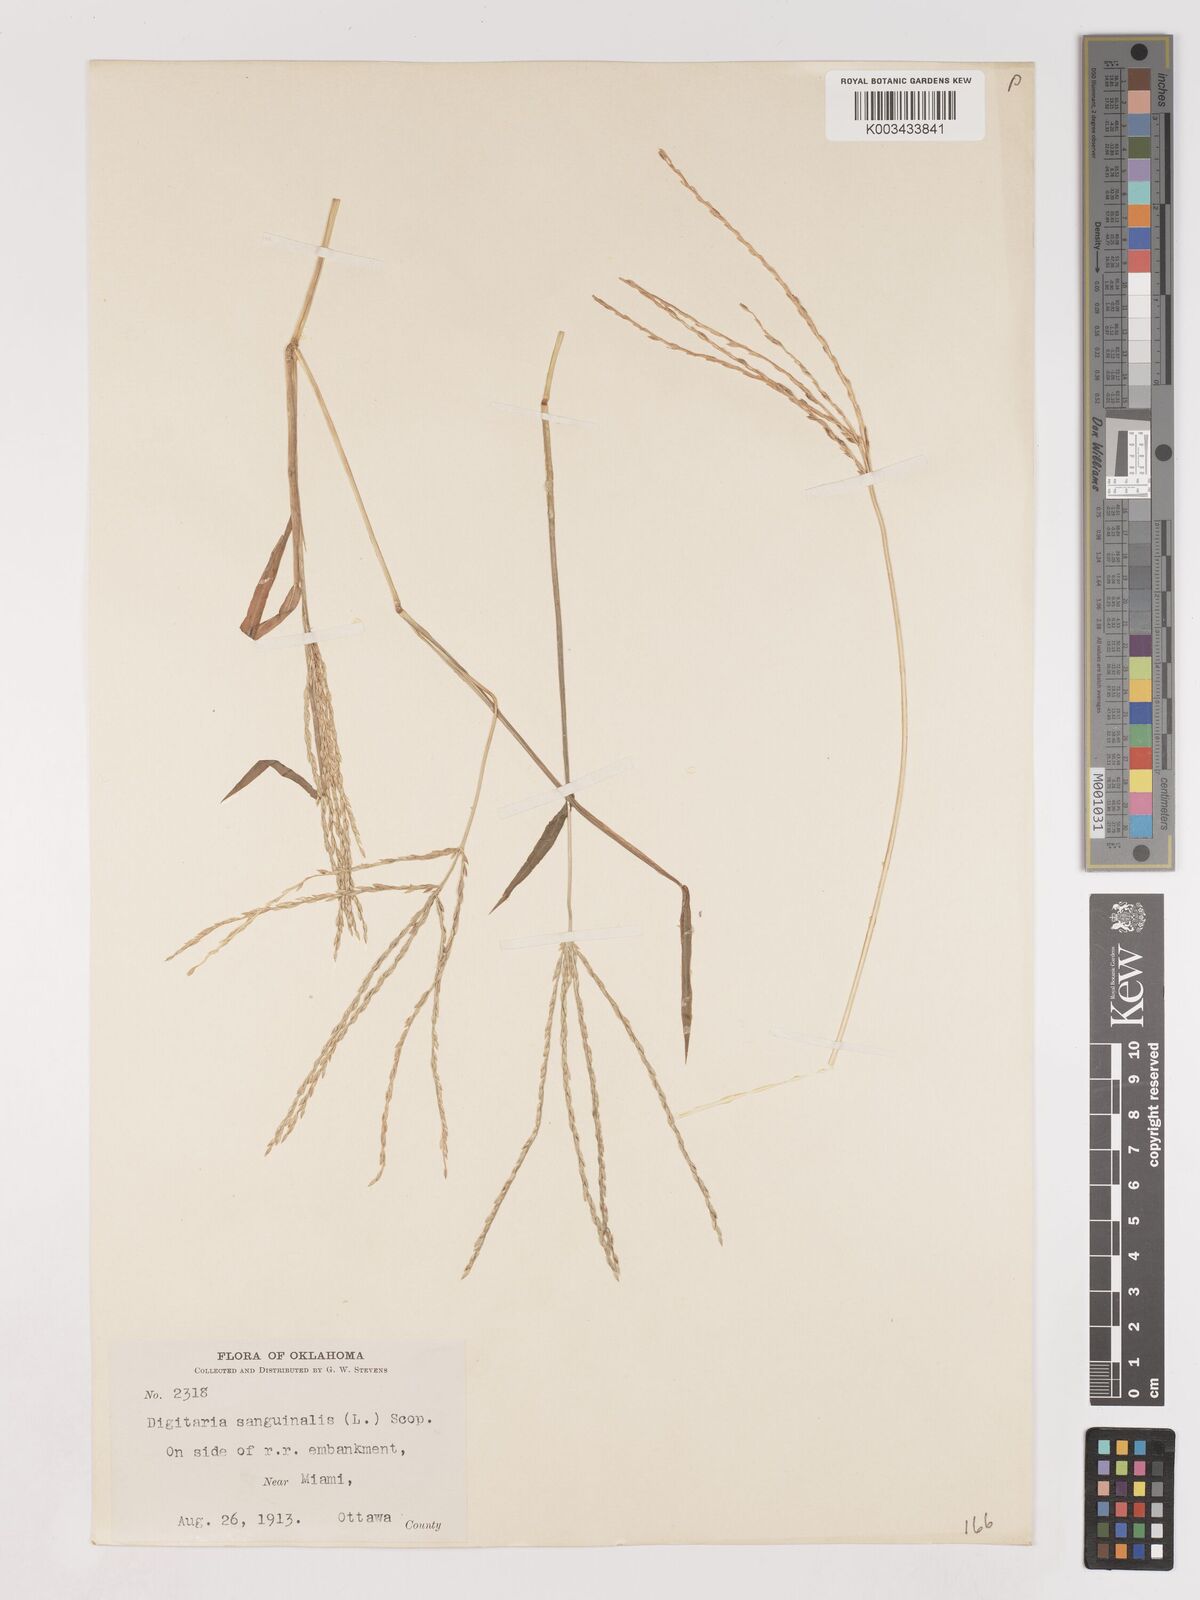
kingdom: Plantae
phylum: Tracheophyta
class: Liliopsida
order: Poales
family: Poaceae
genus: Digitaria
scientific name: Digitaria ciliaris
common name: Tropical finger-grass
